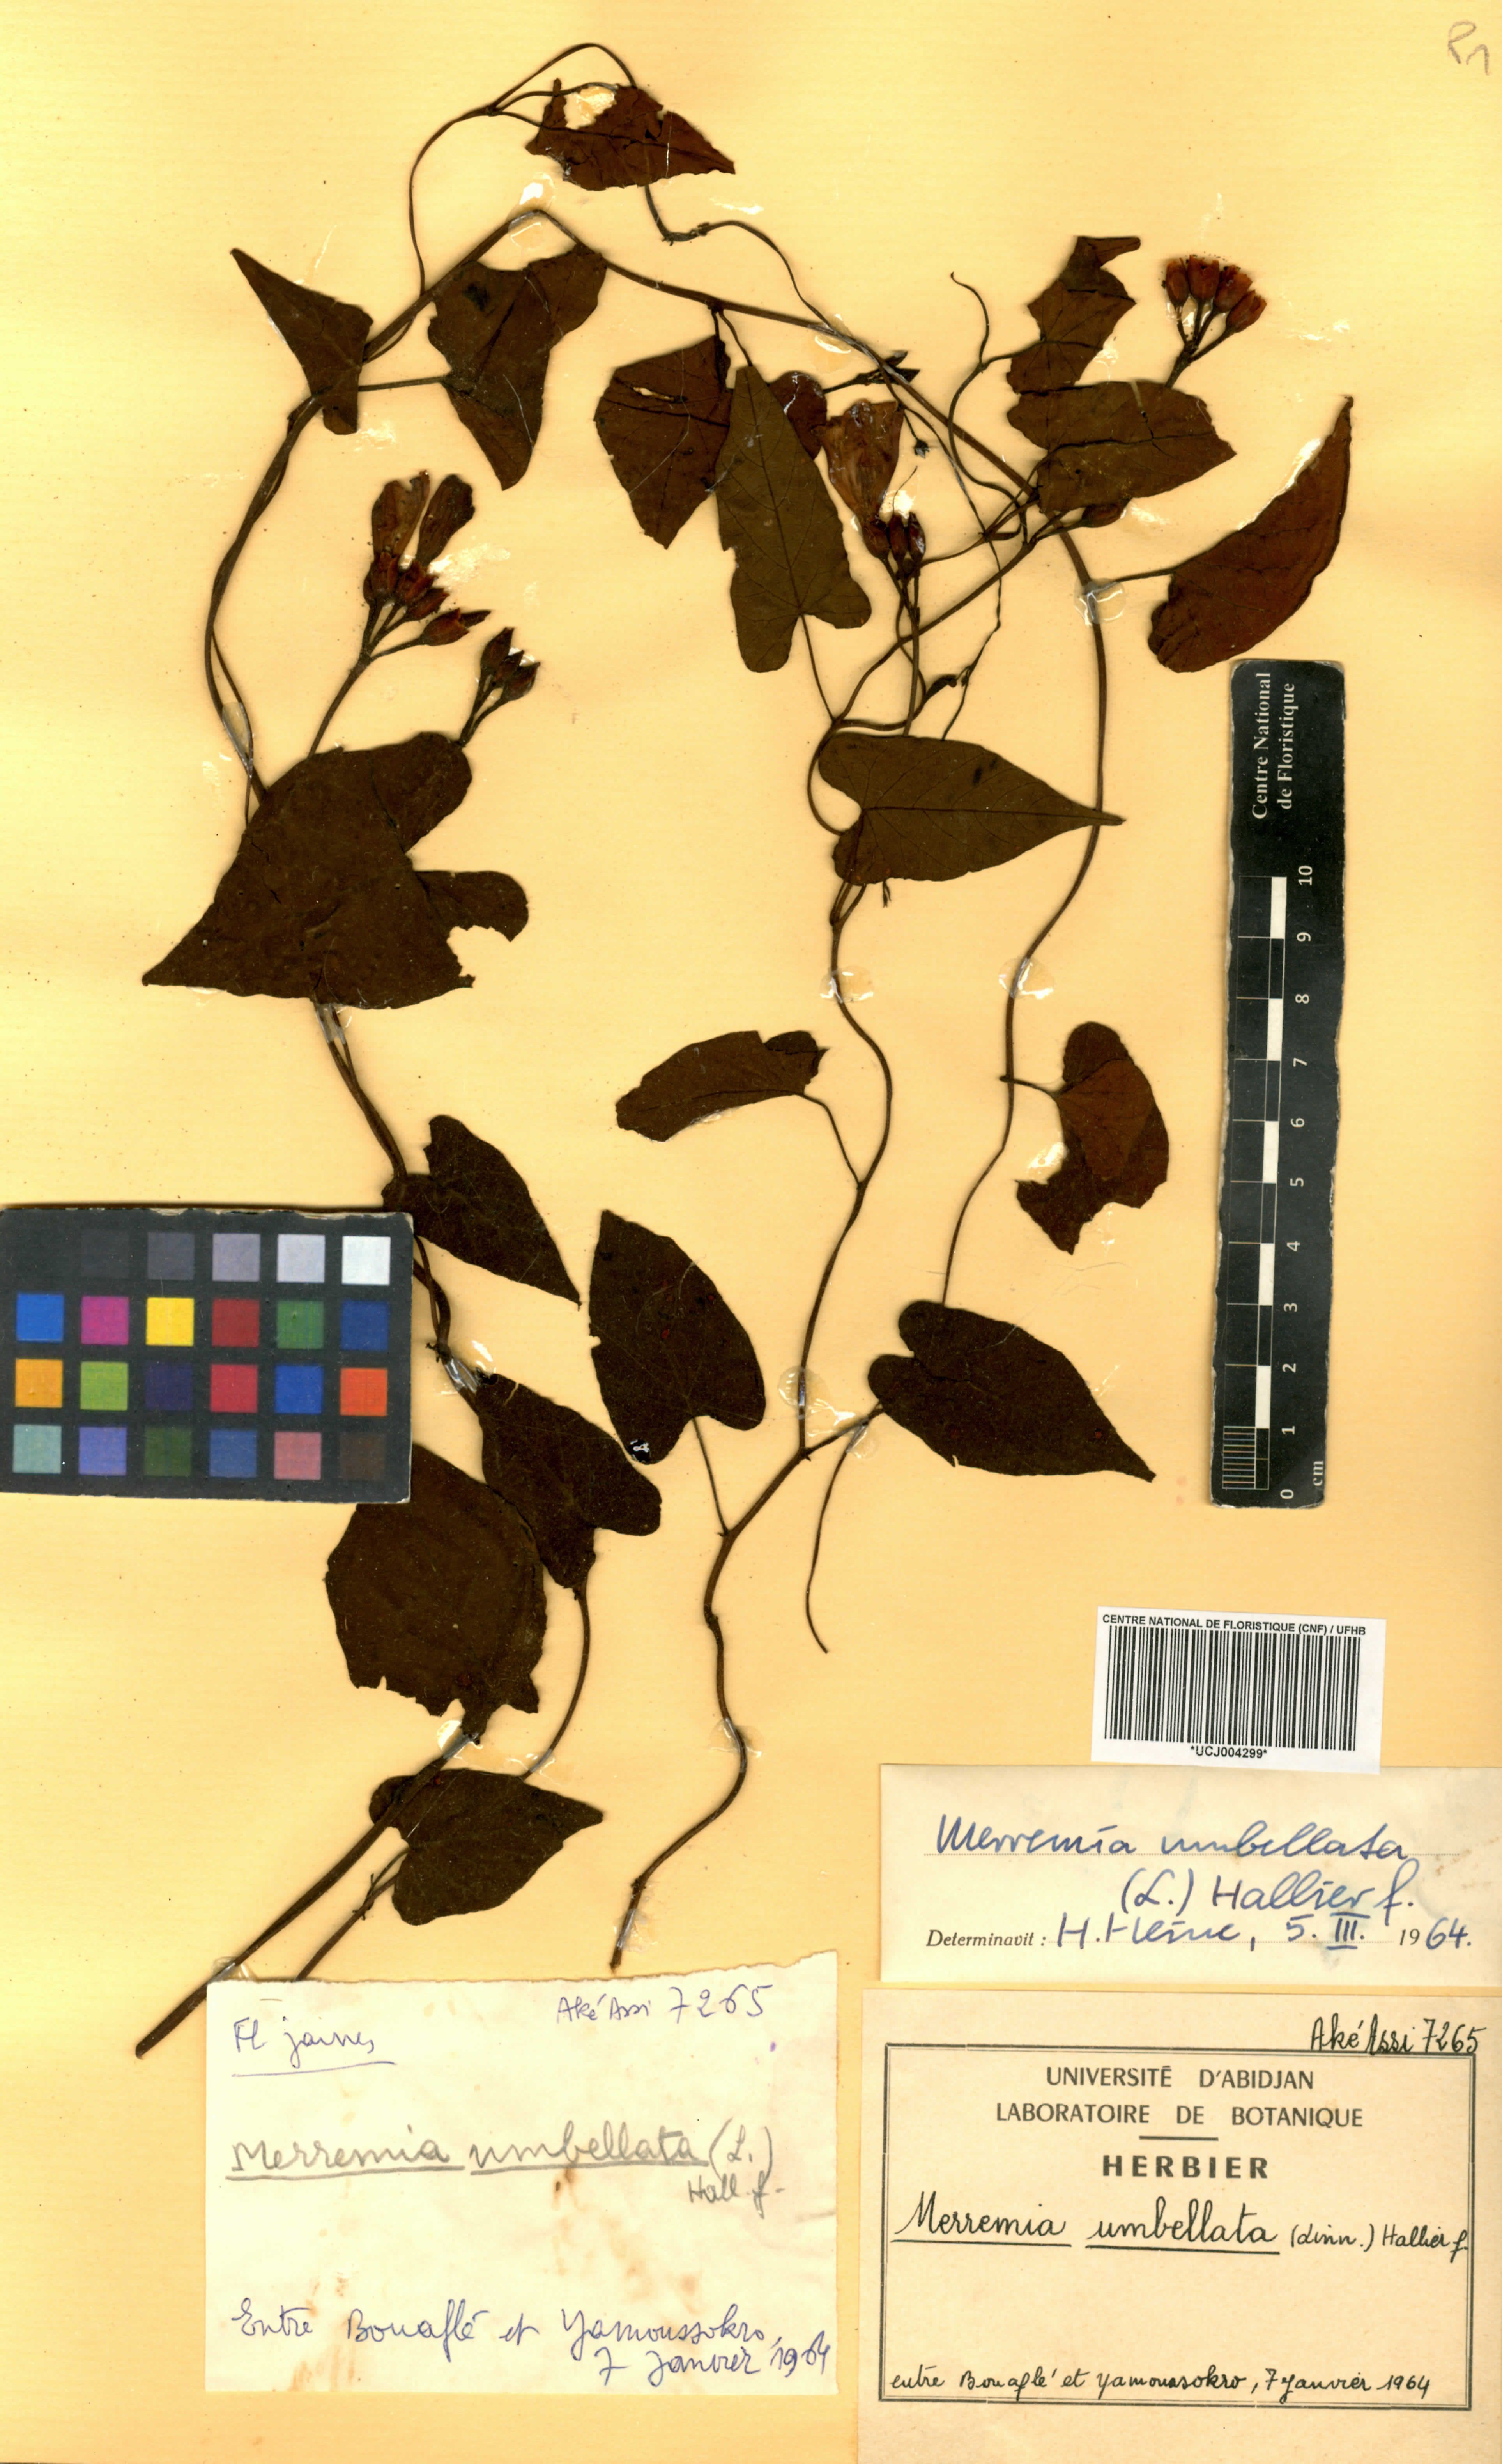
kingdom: Plantae
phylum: Tracheophyta
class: Magnoliopsida
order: Solanales
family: Convolvulaceae
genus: Camonea
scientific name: Camonea umbellata
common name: Hogvine
